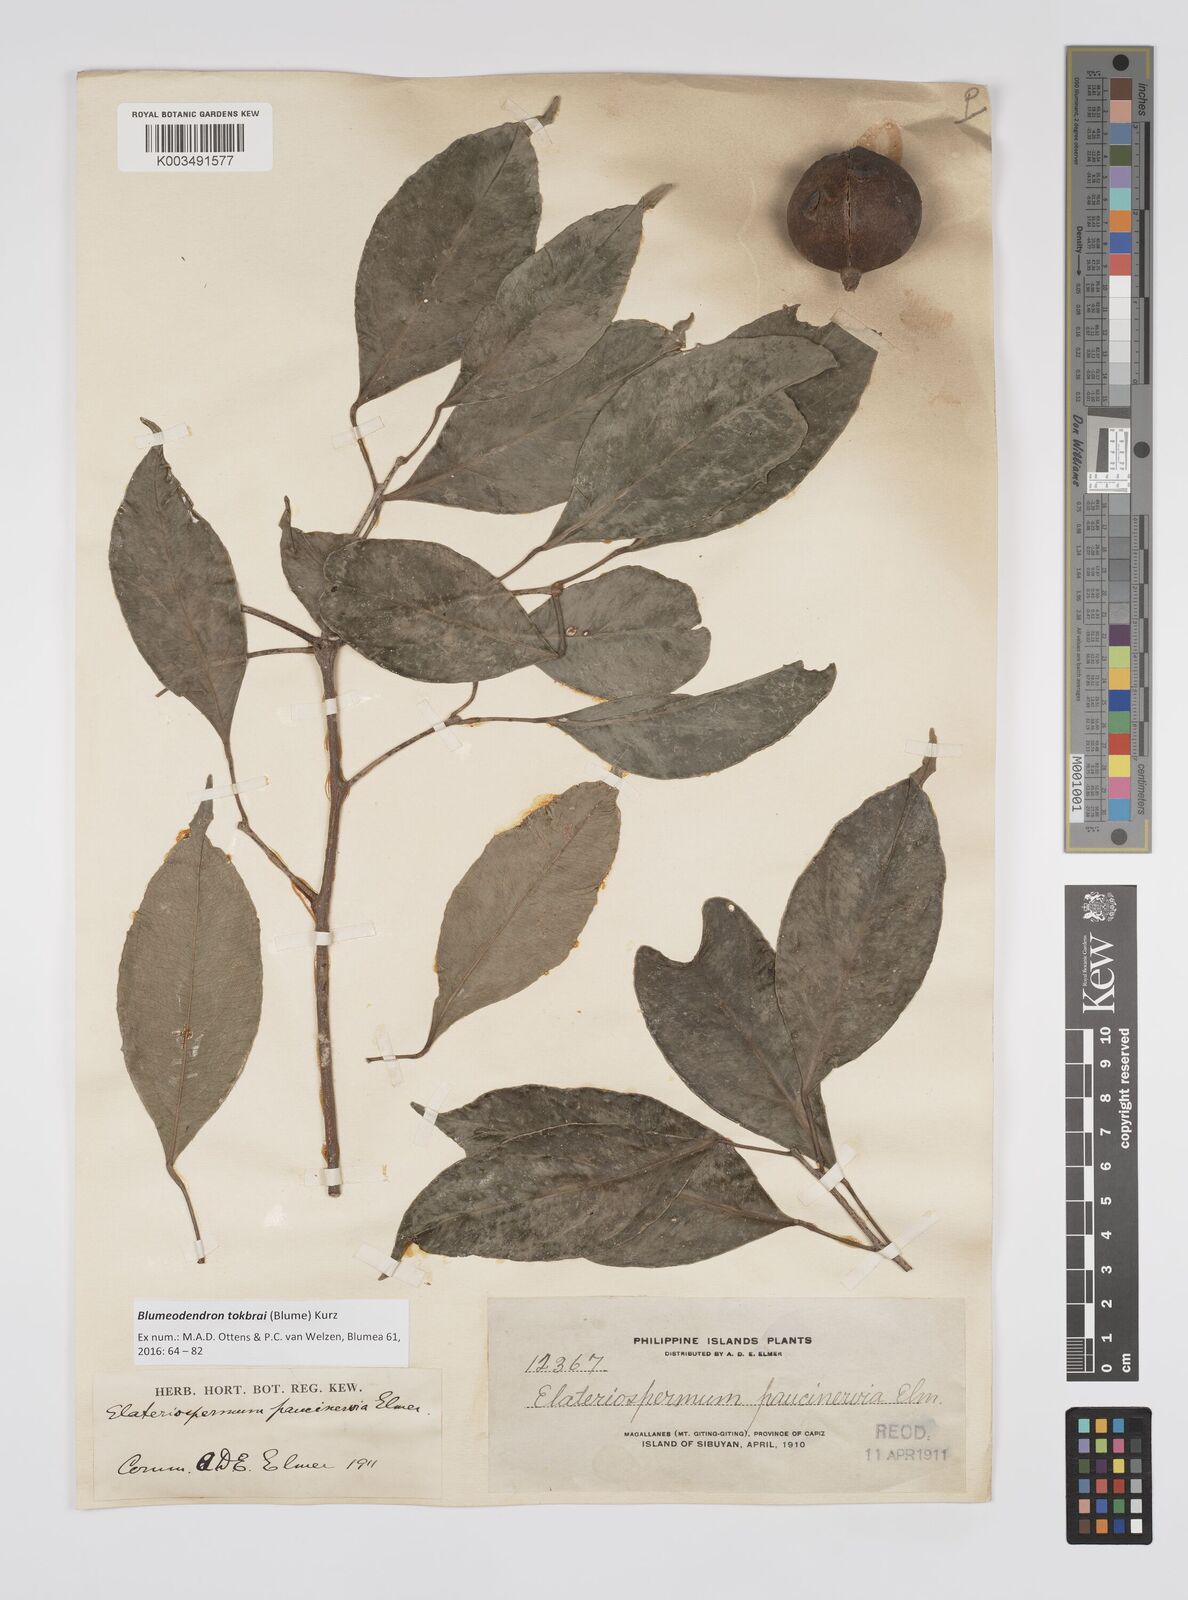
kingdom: Plantae
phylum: Tracheophyta
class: Magnoliopsida
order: Malpighiales
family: Euphorbiaceae
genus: Blumeodendron
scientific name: Blumeodendron tokbrai
